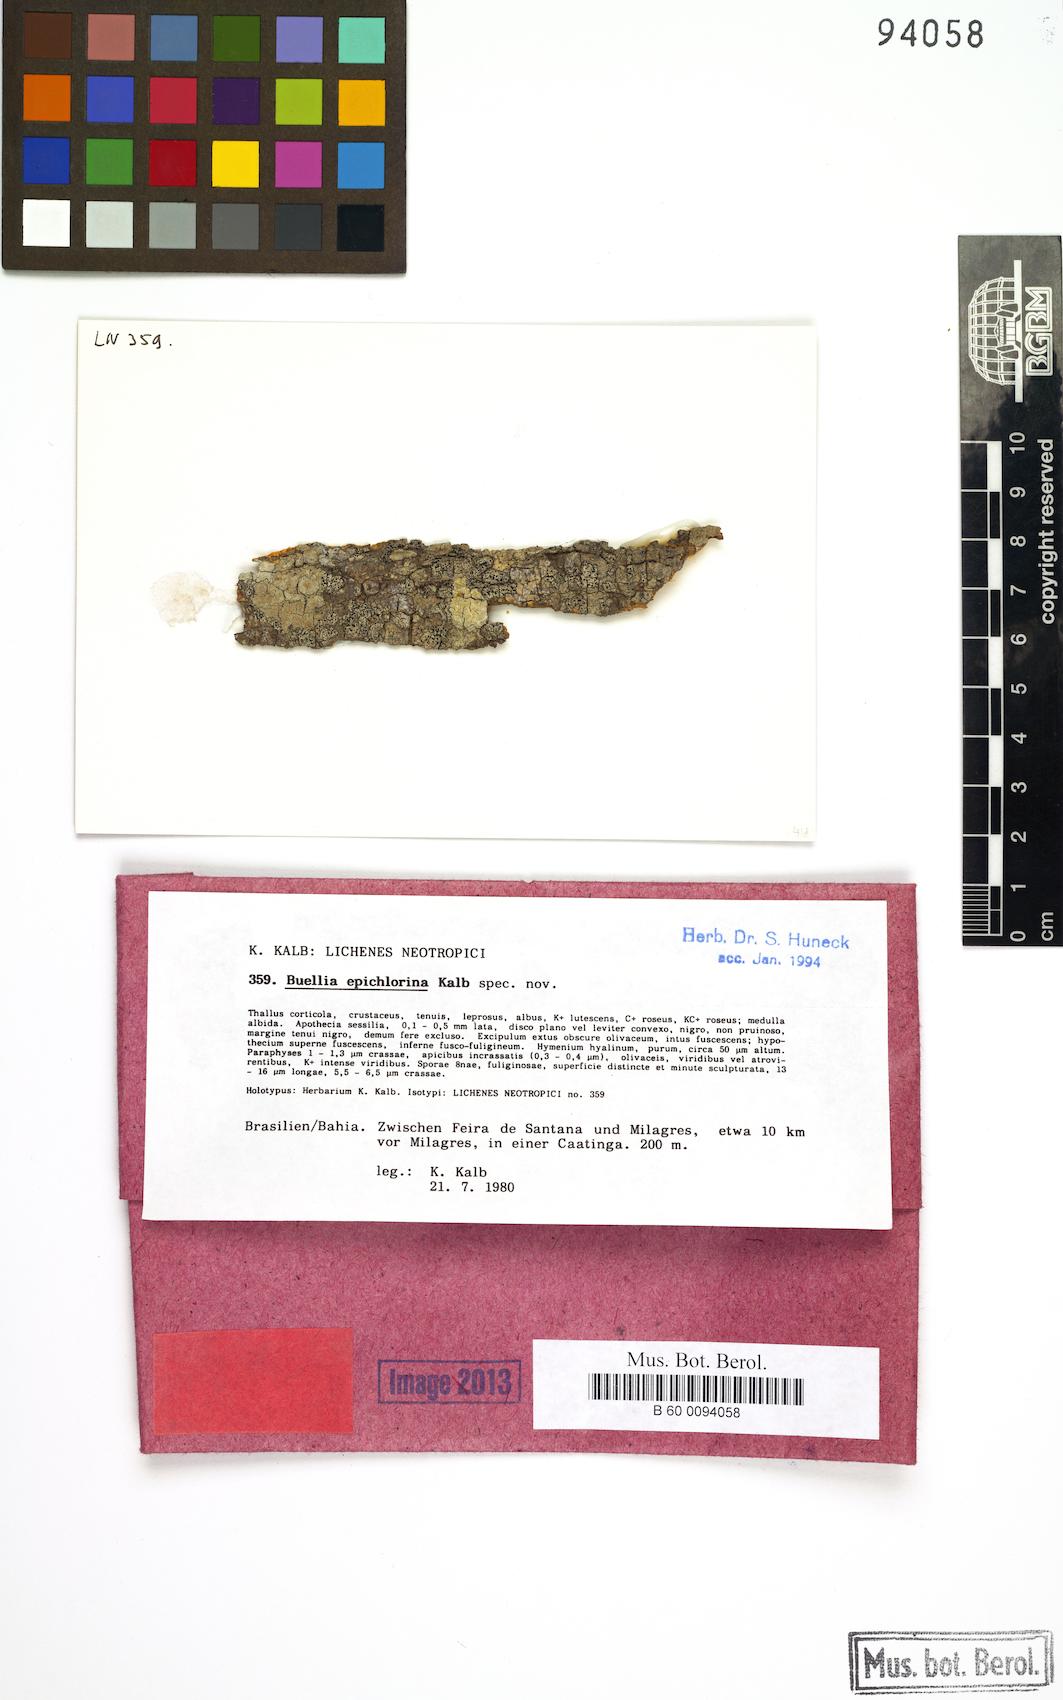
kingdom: Fungi
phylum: Ascomycota
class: Lecanoromycetes
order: Caliciales
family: Caliciaceae
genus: Buellia
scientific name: Buellia epichlorina
